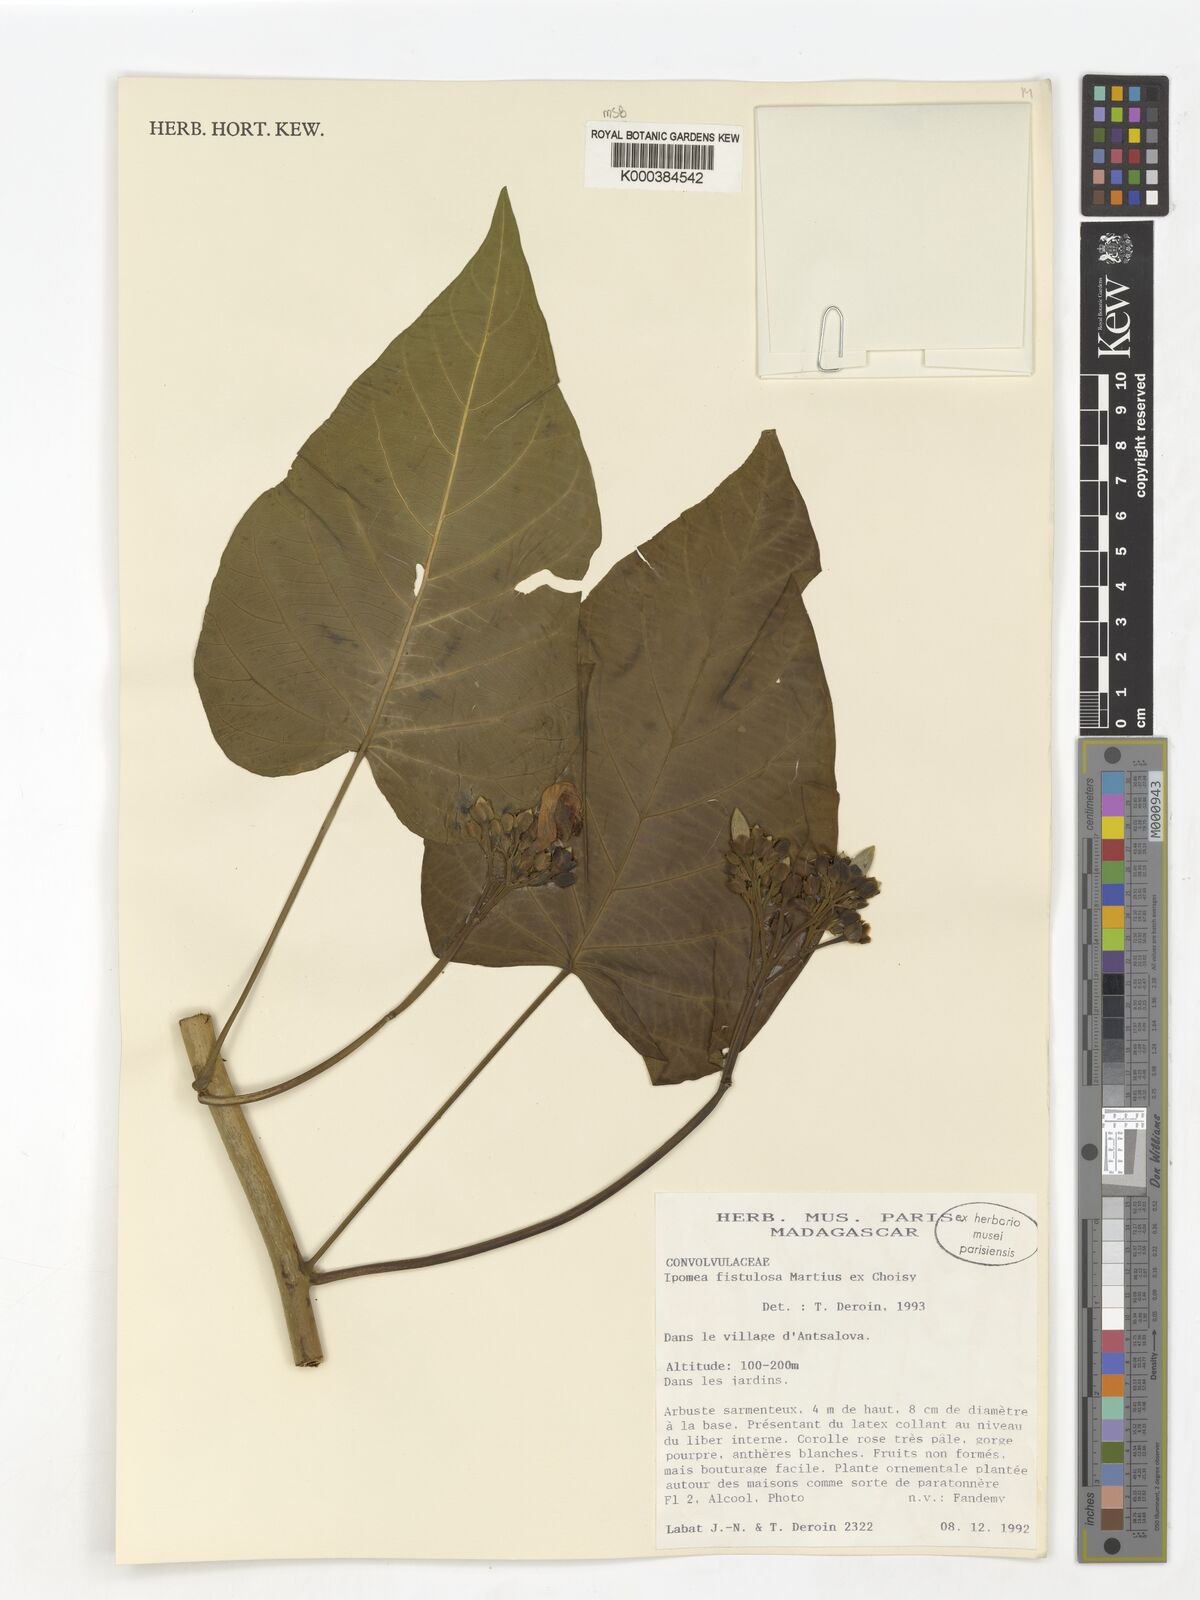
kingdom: Plantae
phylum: Tracheophyta
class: Magnoliopsida
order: Solanales
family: Convolvulaceae
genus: Ipomoea
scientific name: Ipomoea carnea
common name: Morning-glory
